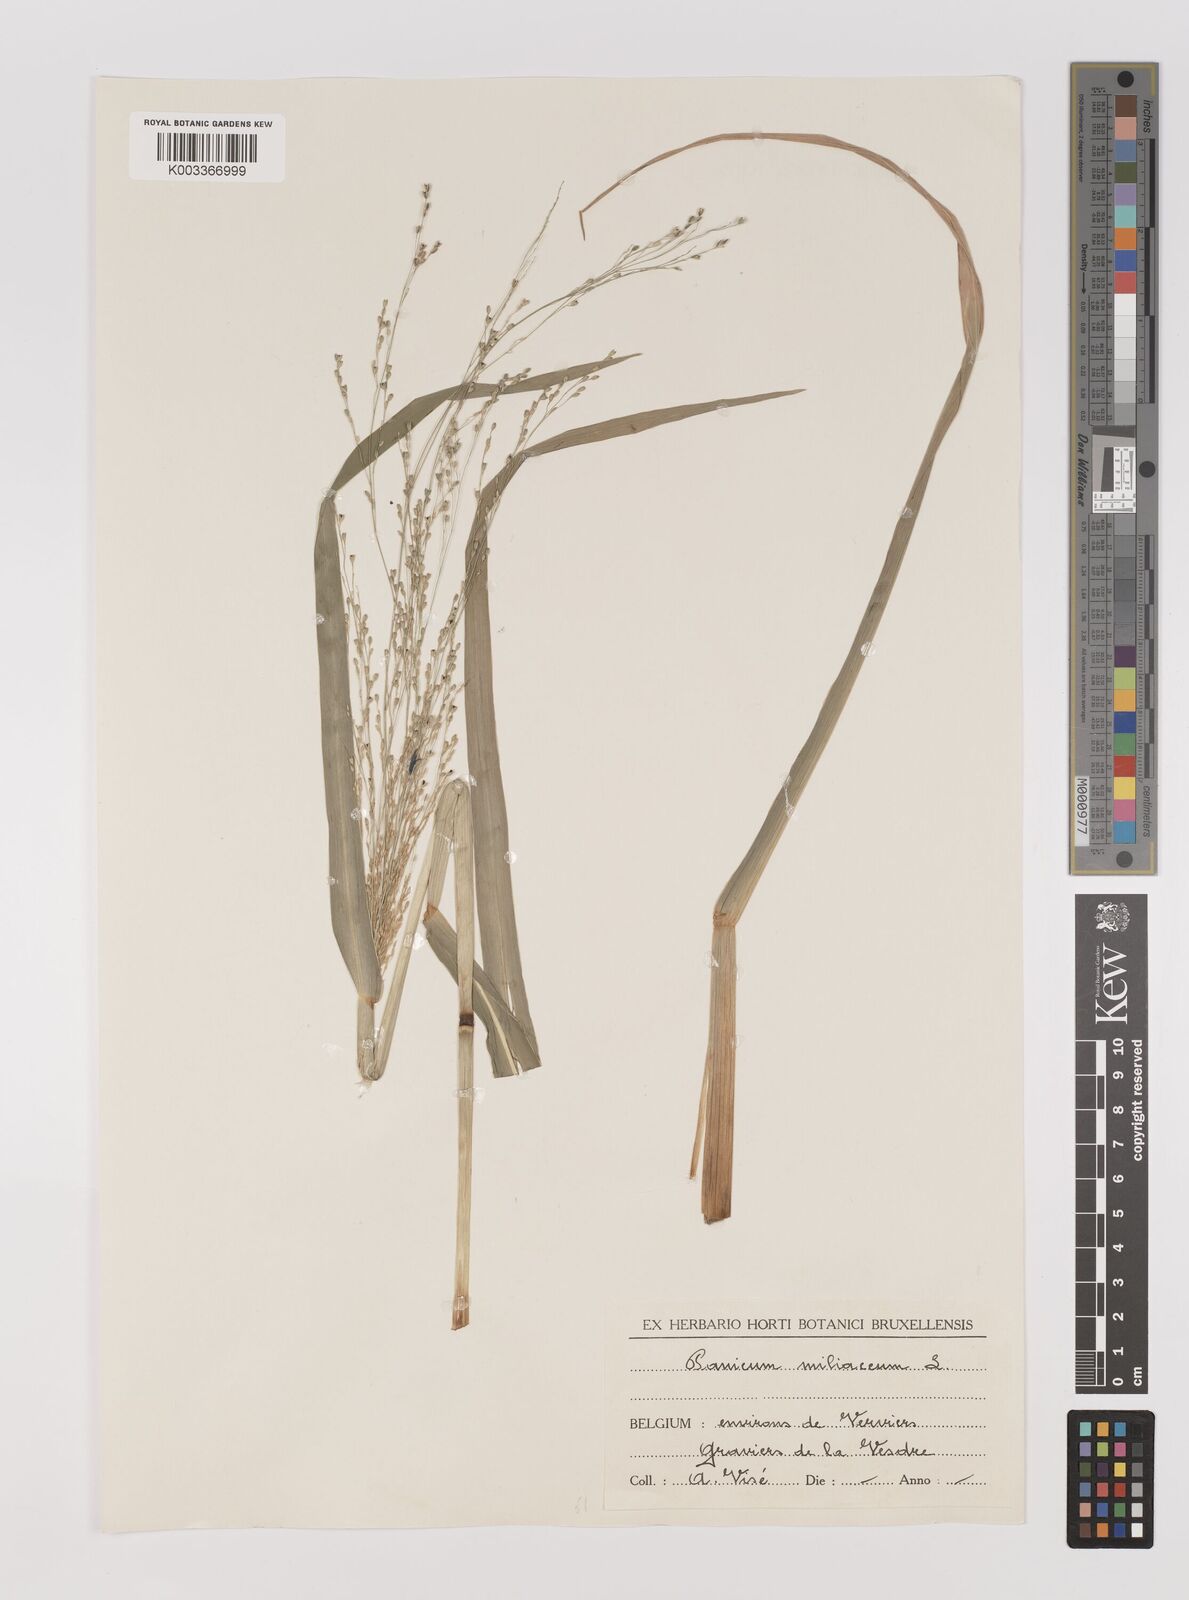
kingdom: Plantae
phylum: Tracheophyta
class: Liliopsida
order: Poales
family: Poaceae
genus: Panicum
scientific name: Panicum schinzii
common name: Sweet grass
